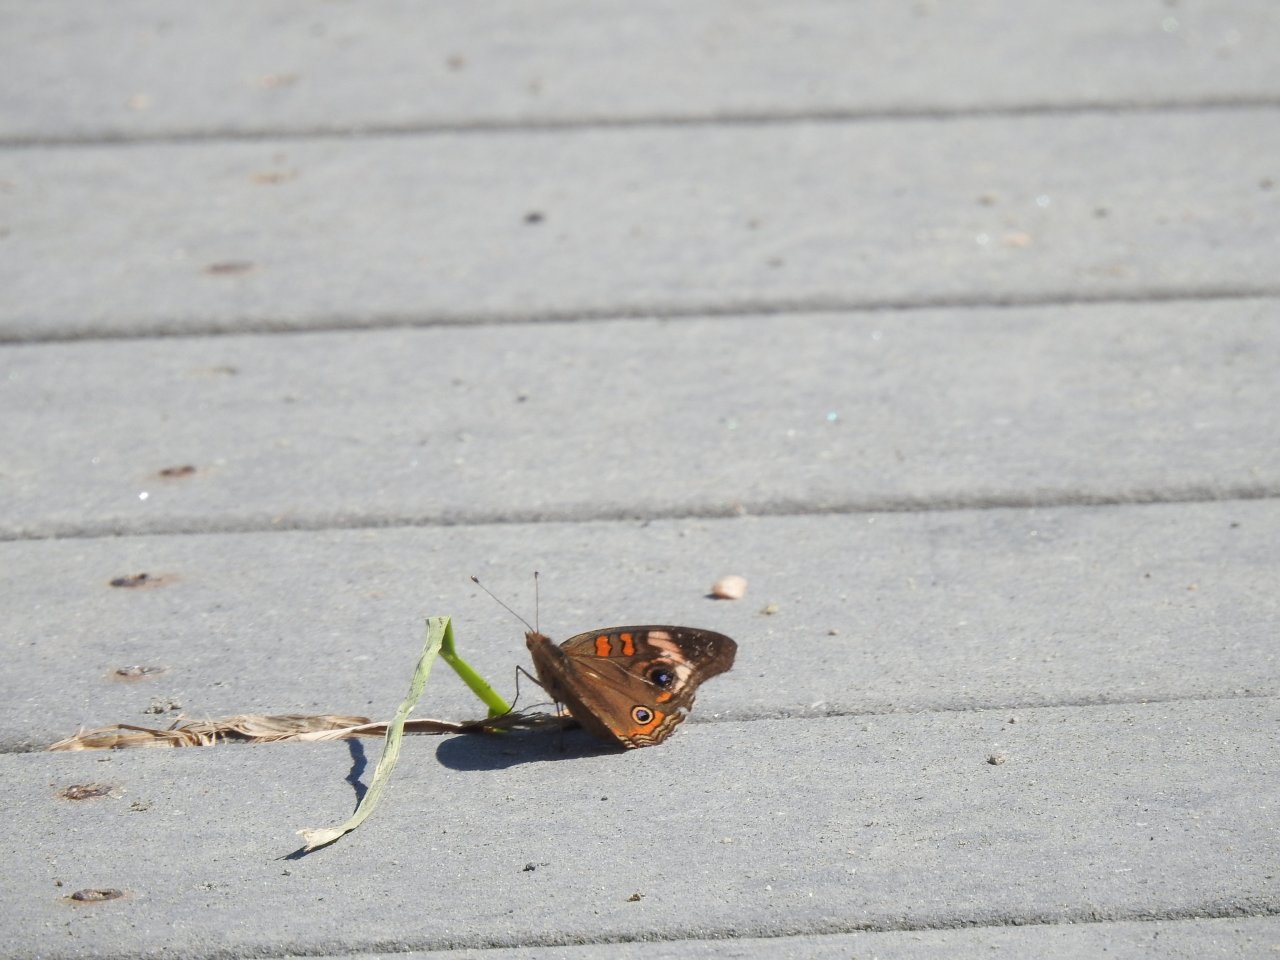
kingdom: Animalia
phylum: Arthropoda
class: Insecta
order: Lepidoptera
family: Nymphalidae
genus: Junonia
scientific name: Junonia coenia
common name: Common Buckeye
